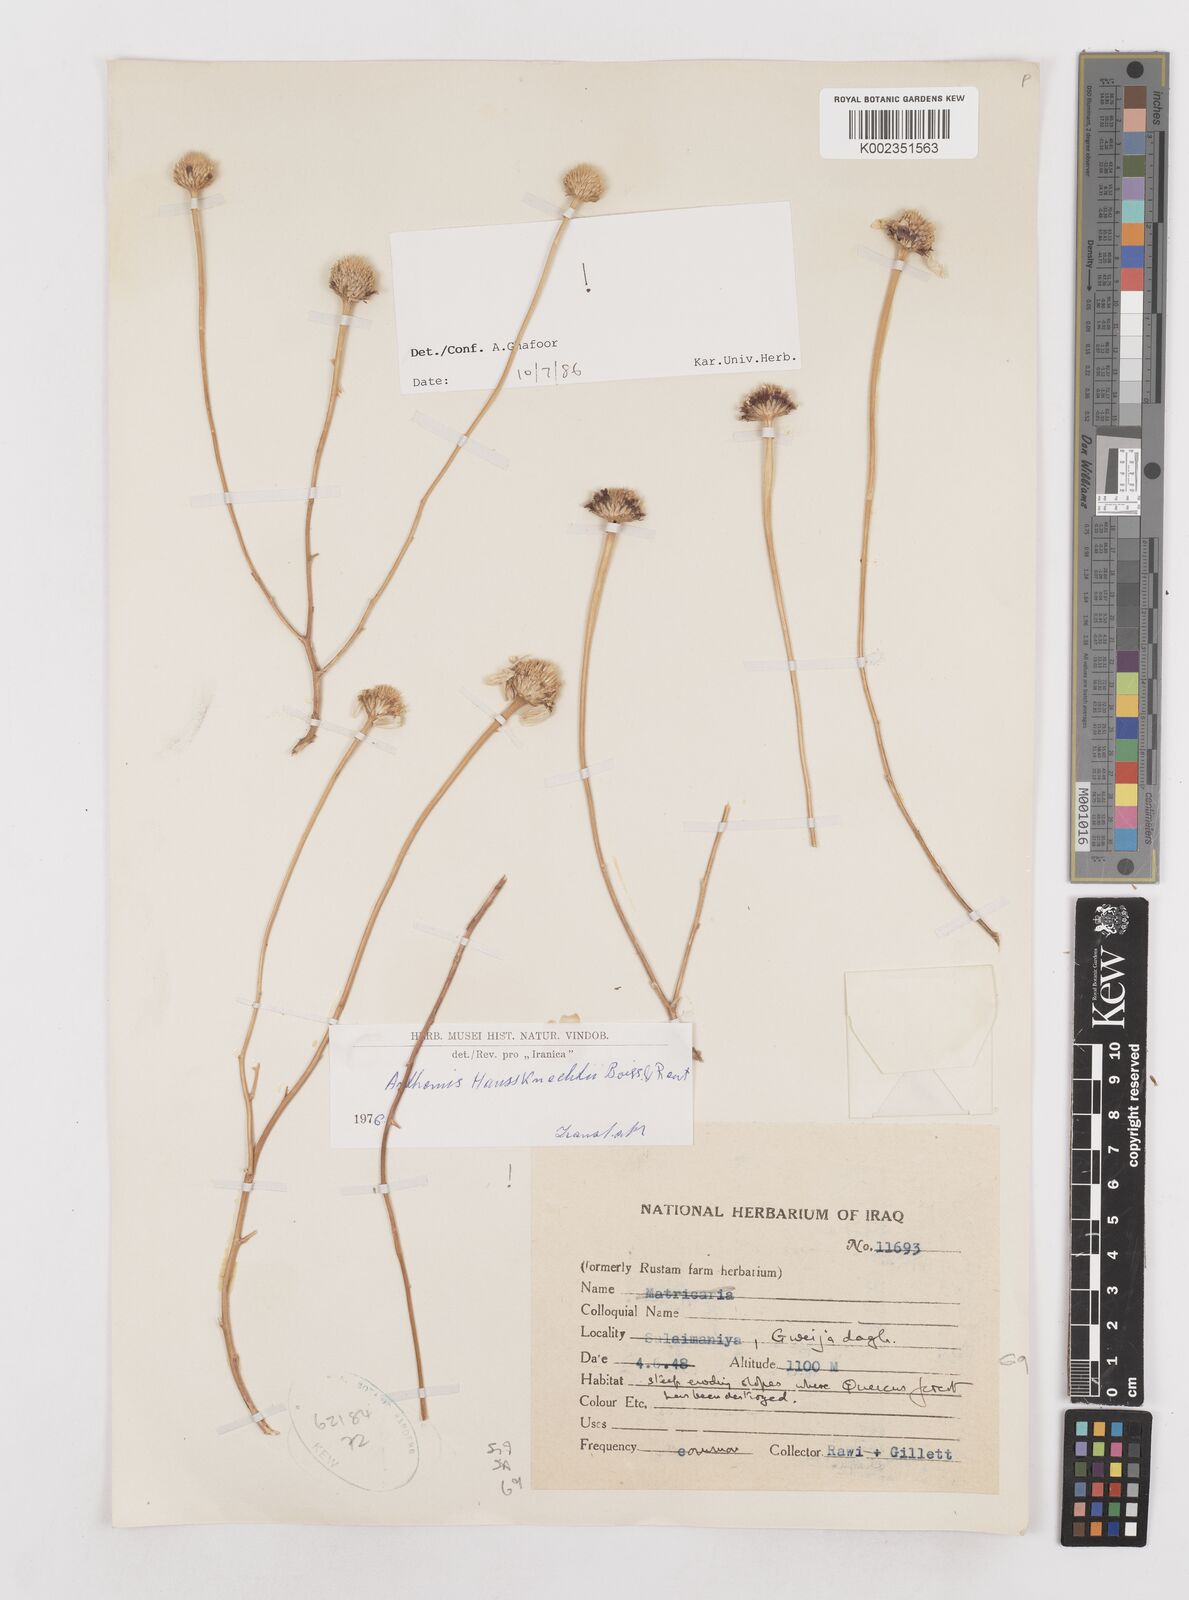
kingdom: Plantae
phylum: Tracheophyta
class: Magnoliopsida
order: Asterales
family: Asteraceae
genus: Anthemis
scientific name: Anthemis haussknechtii
